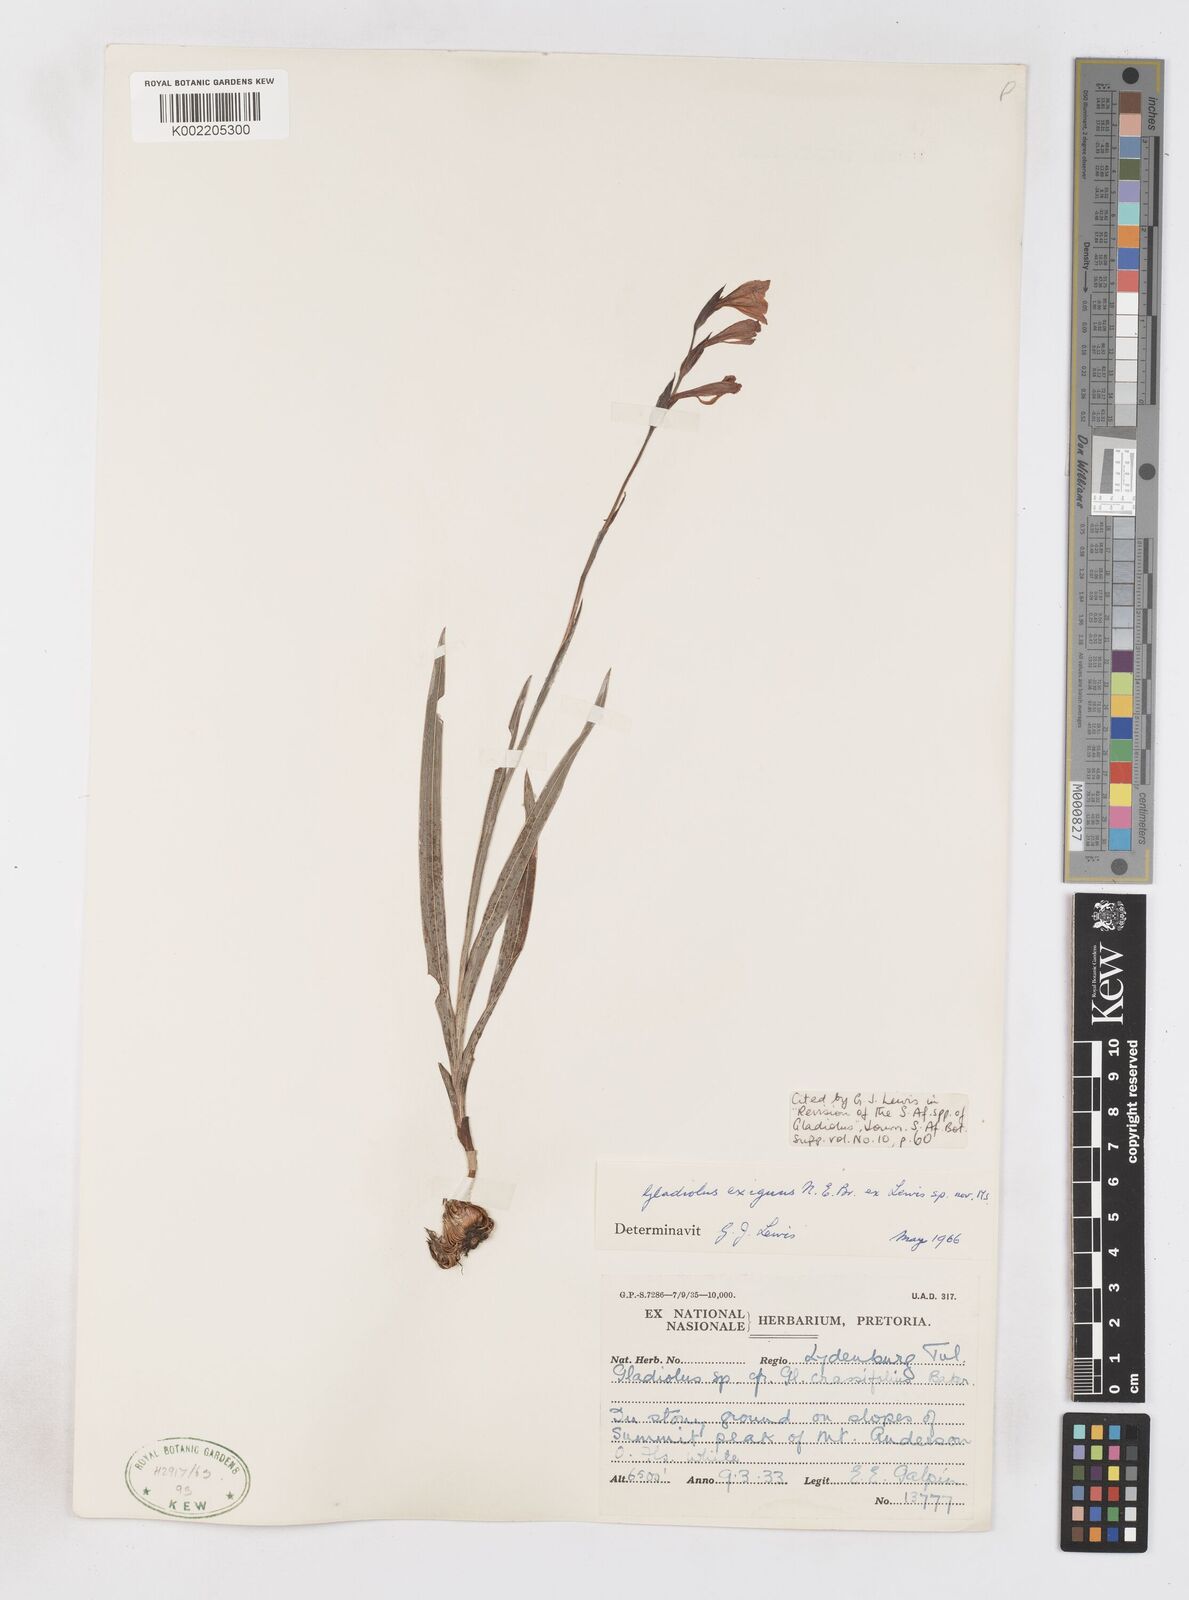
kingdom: Plantae
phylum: Tracheophyta
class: Liliopsida
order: Asparagales
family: Iridaceae
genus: Gladiolus
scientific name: Gladiolus exiguus
